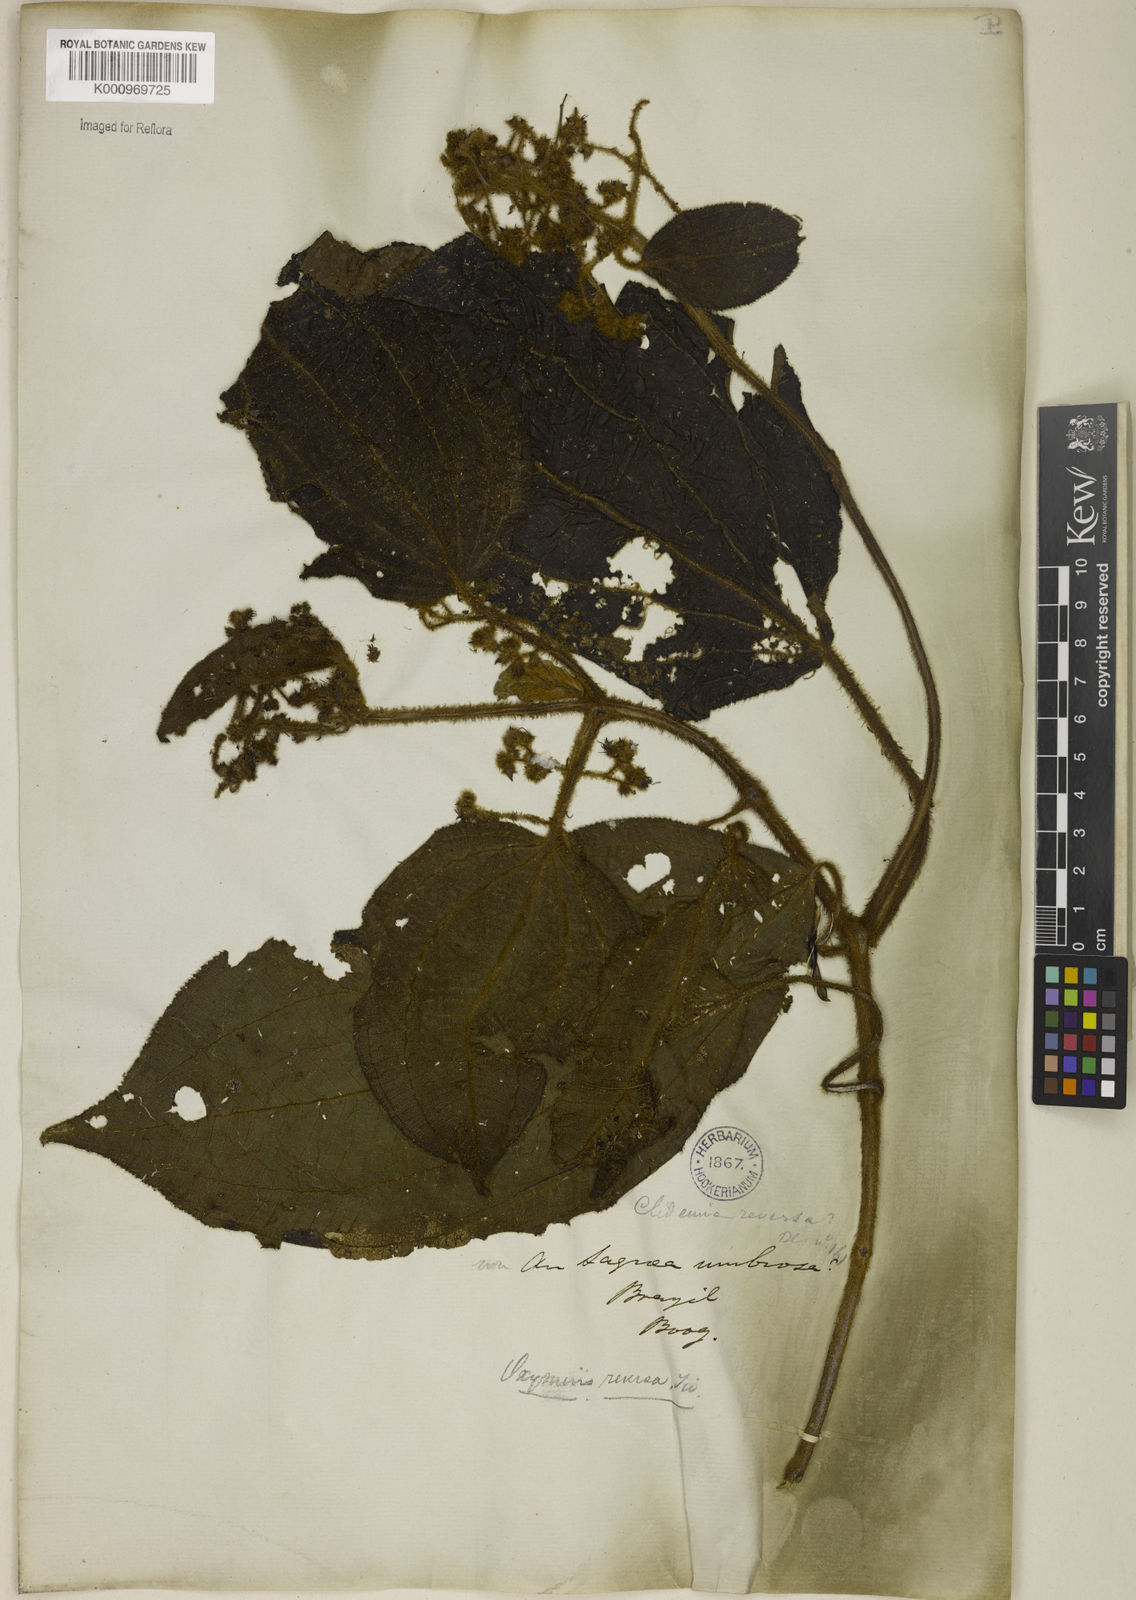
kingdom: Plantae
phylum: Tracheophyta
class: Magnoliopsida
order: Myrtales
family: Melastomataceae
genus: Miconia
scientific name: Miconia reversa
